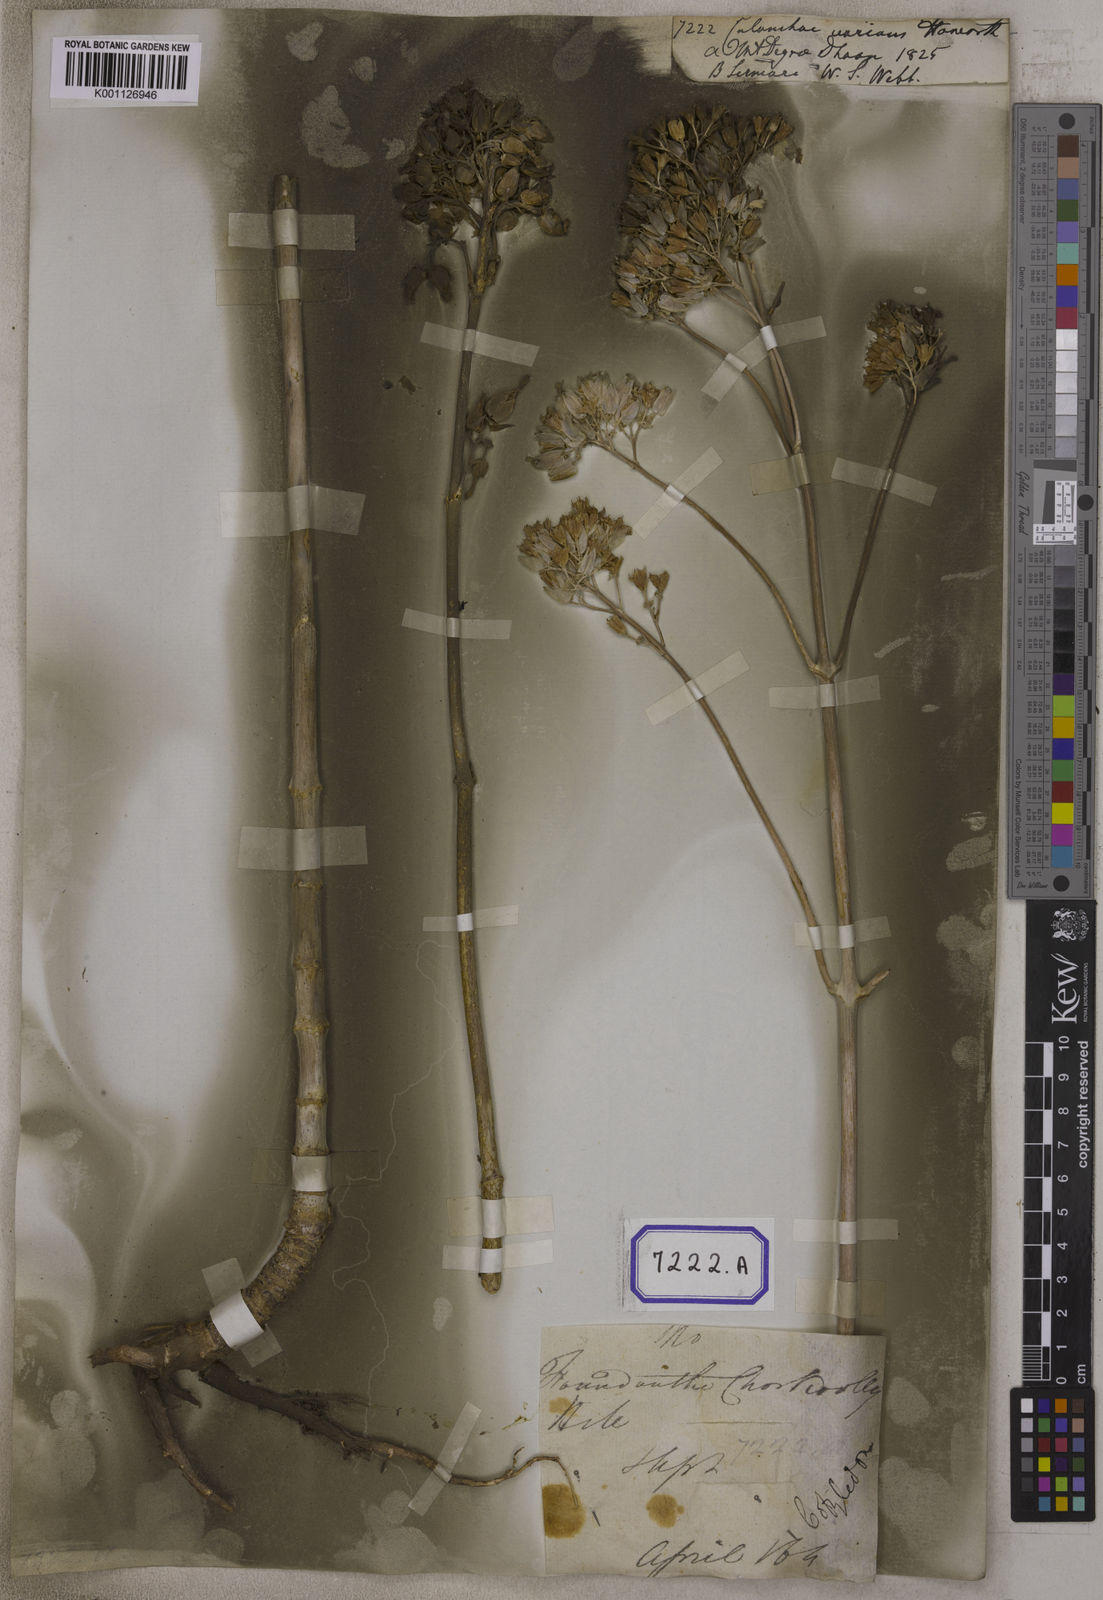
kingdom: Plantae
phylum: Tracheophyta
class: Magnoliopsida
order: Saxifragales
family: Crassulaceae
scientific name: Crassulaceae
